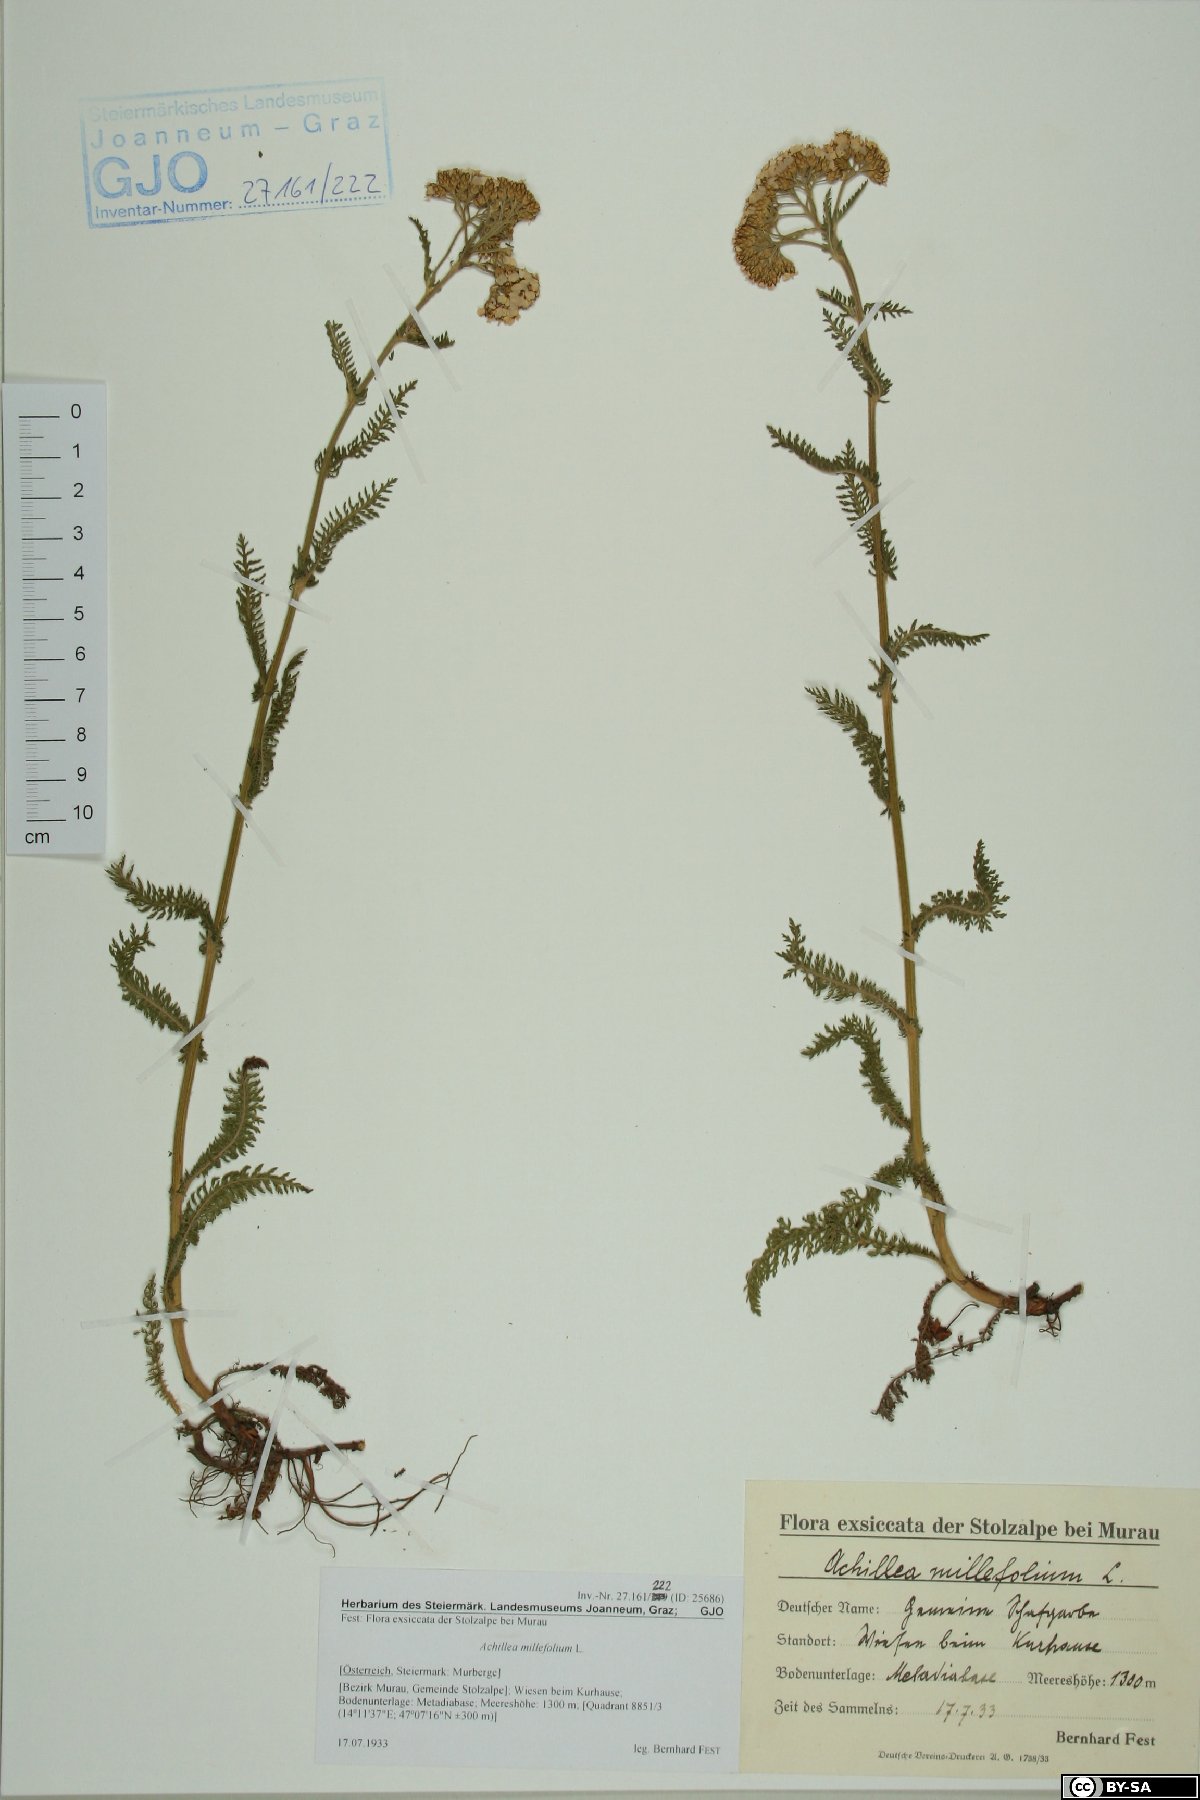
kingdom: Plantae
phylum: Tracheophyta
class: Magnoliopsida
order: Asterales
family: Asteraceae
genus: Achillea
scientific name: Achillea millefolium
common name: Yarrow
